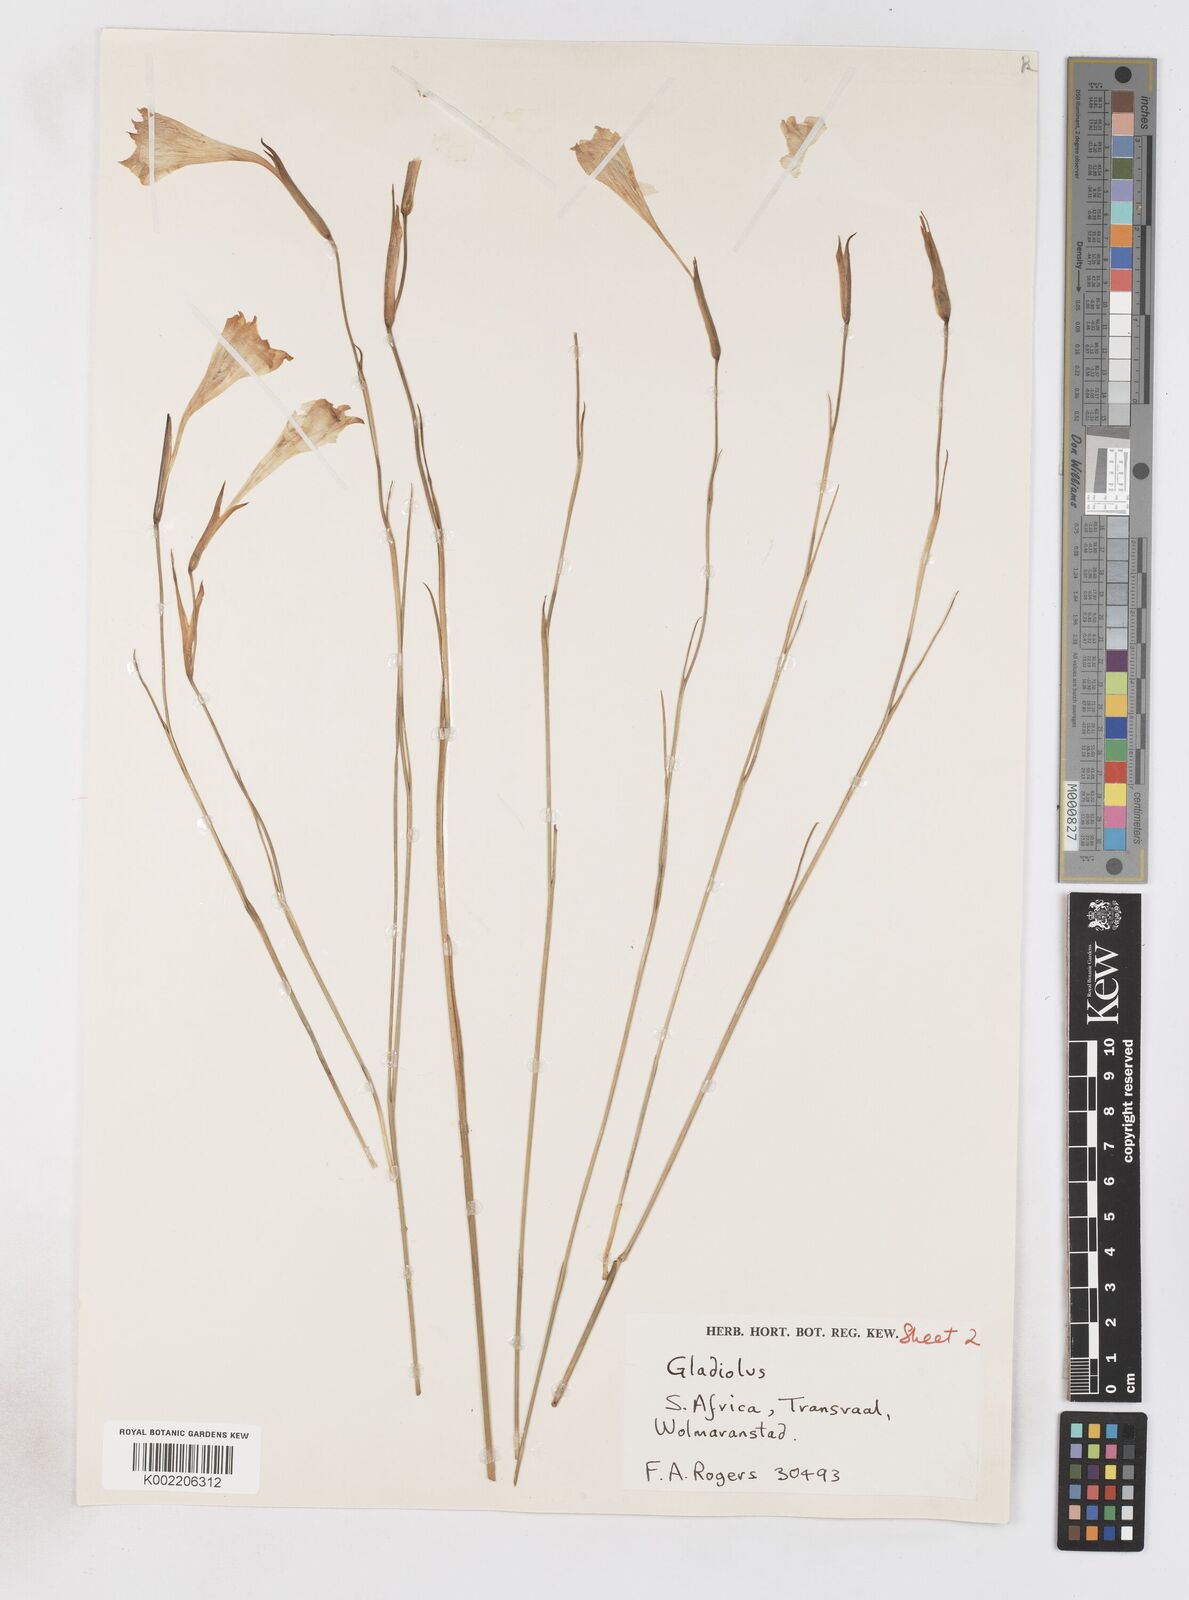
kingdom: Plantae
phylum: Tracheophyta
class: Liliopsida
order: Asparagales
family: Iridaceae
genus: Gladiolus
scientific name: Gladiolus maculatus
